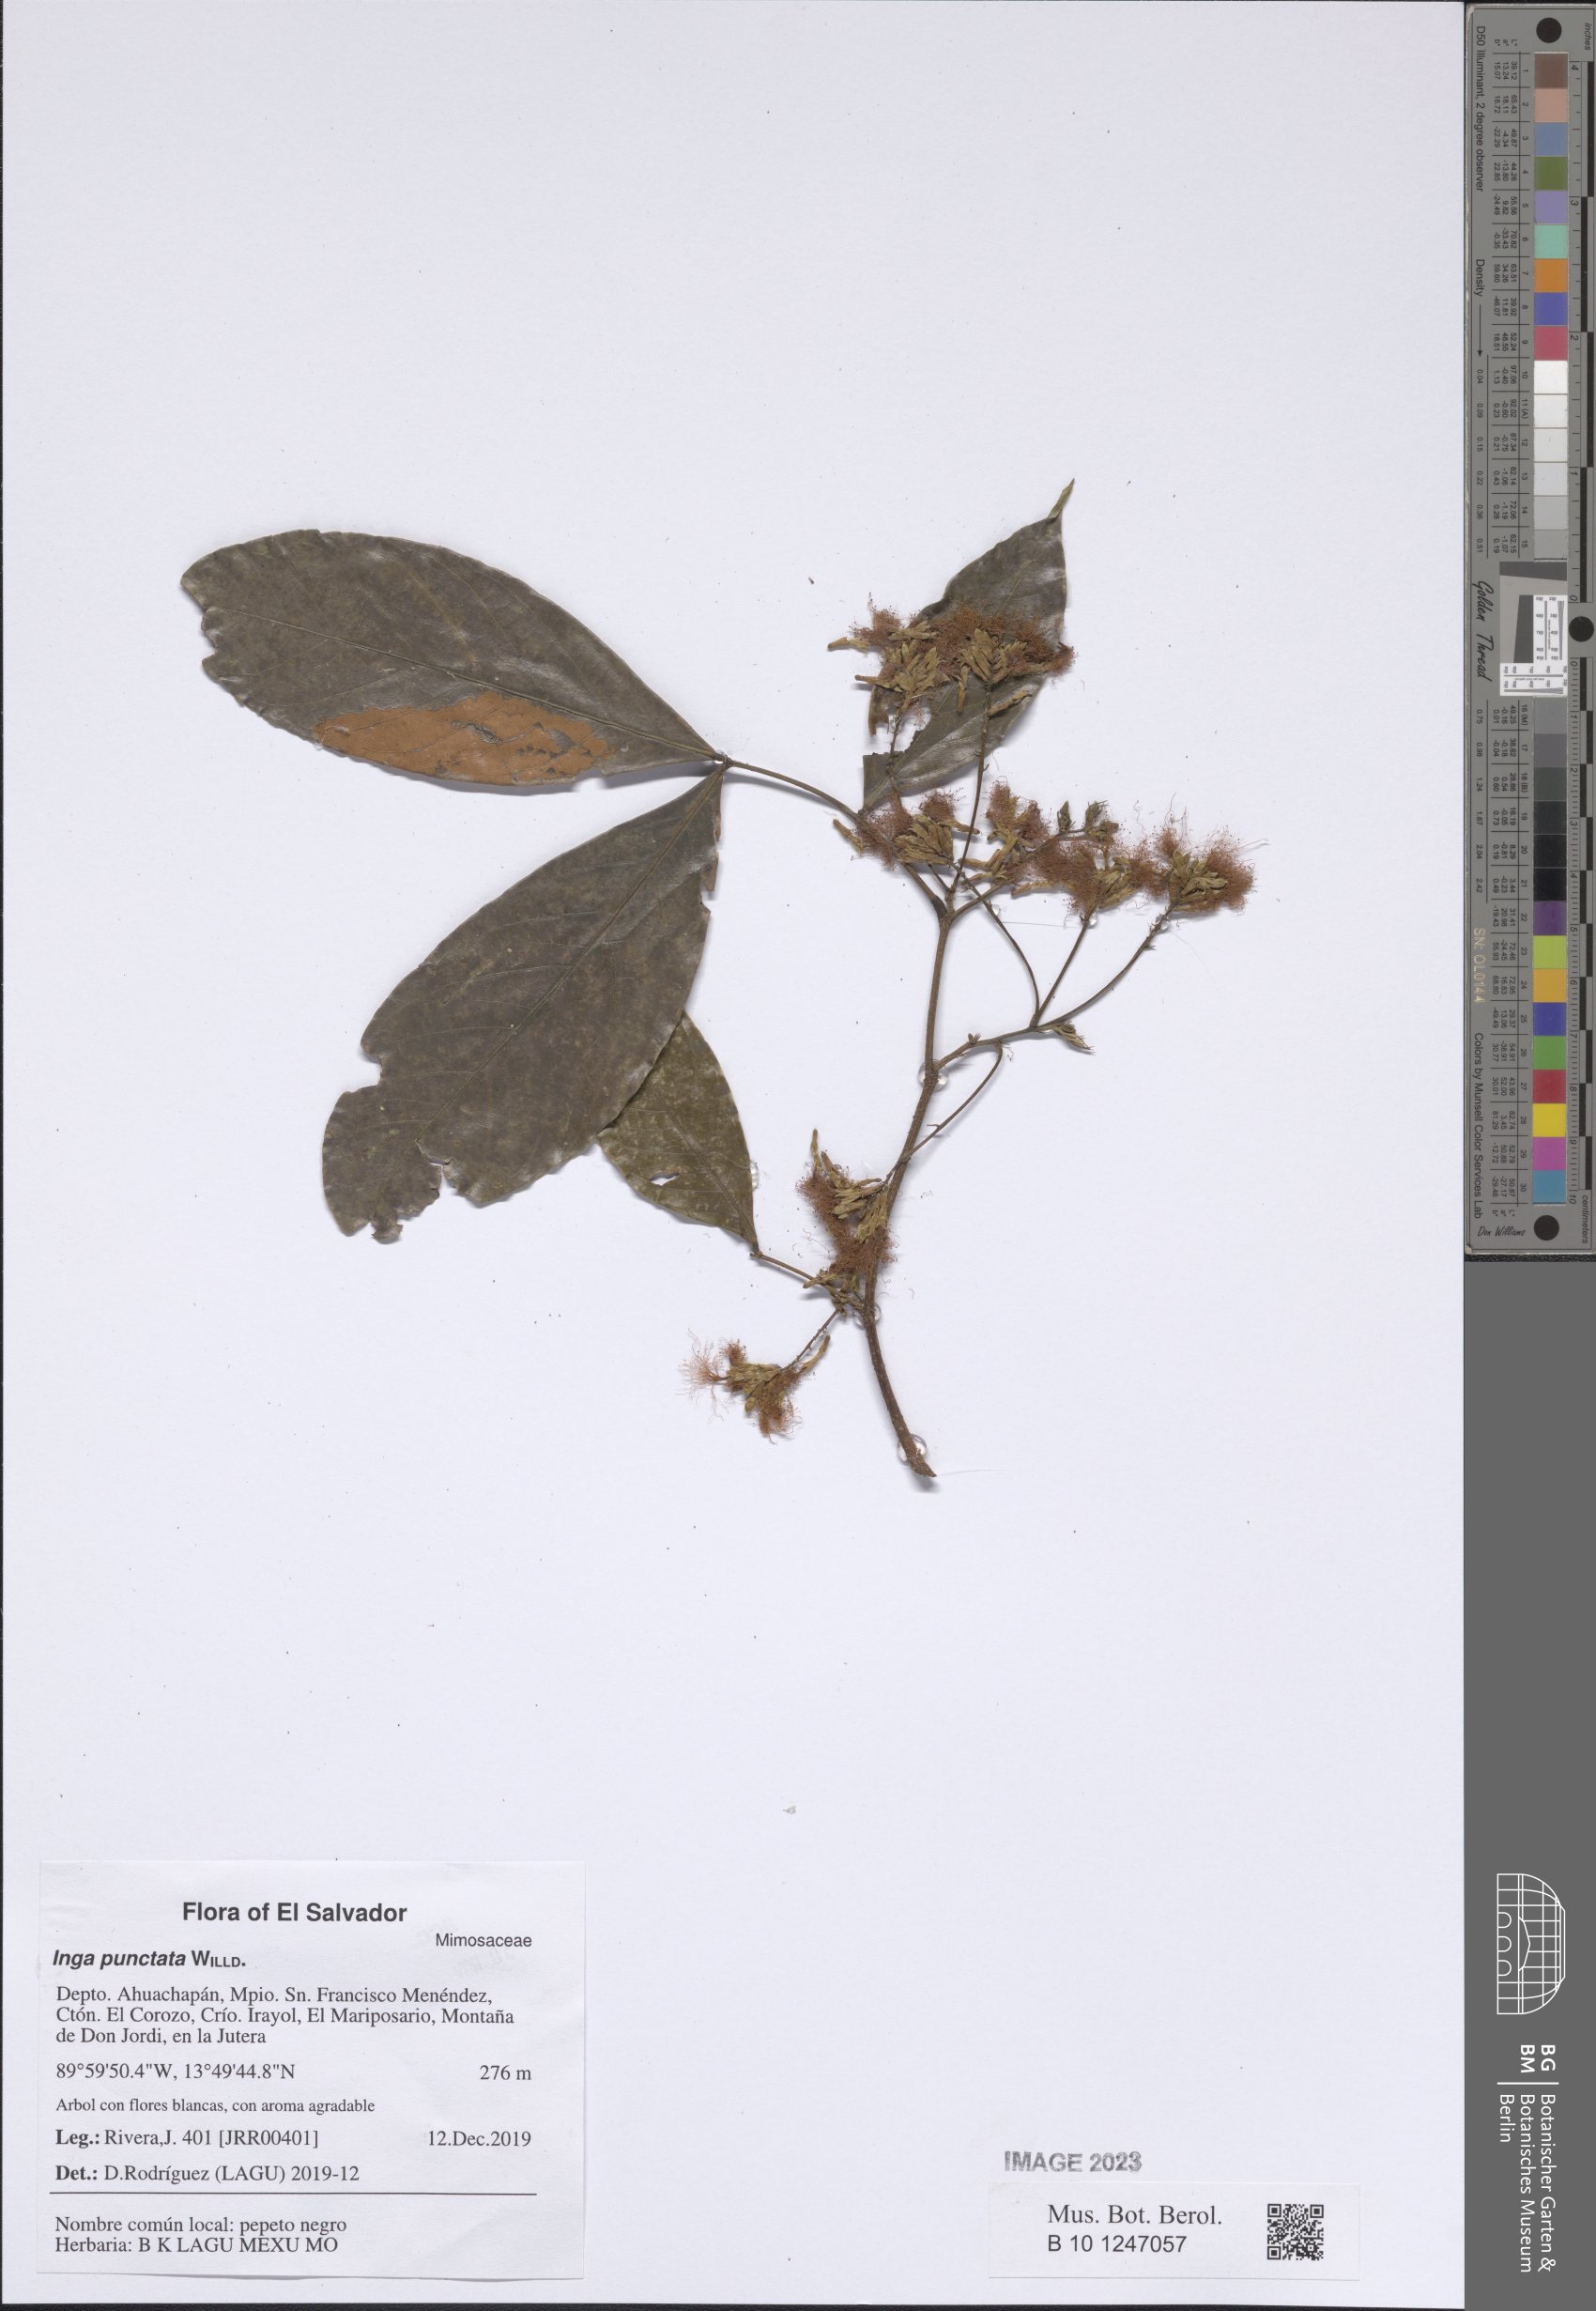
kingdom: Plantae
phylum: Tracheophyta
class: Magnoliopsida
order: Fabales
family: Fabaceae
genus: Inga
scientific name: Inga punctata
